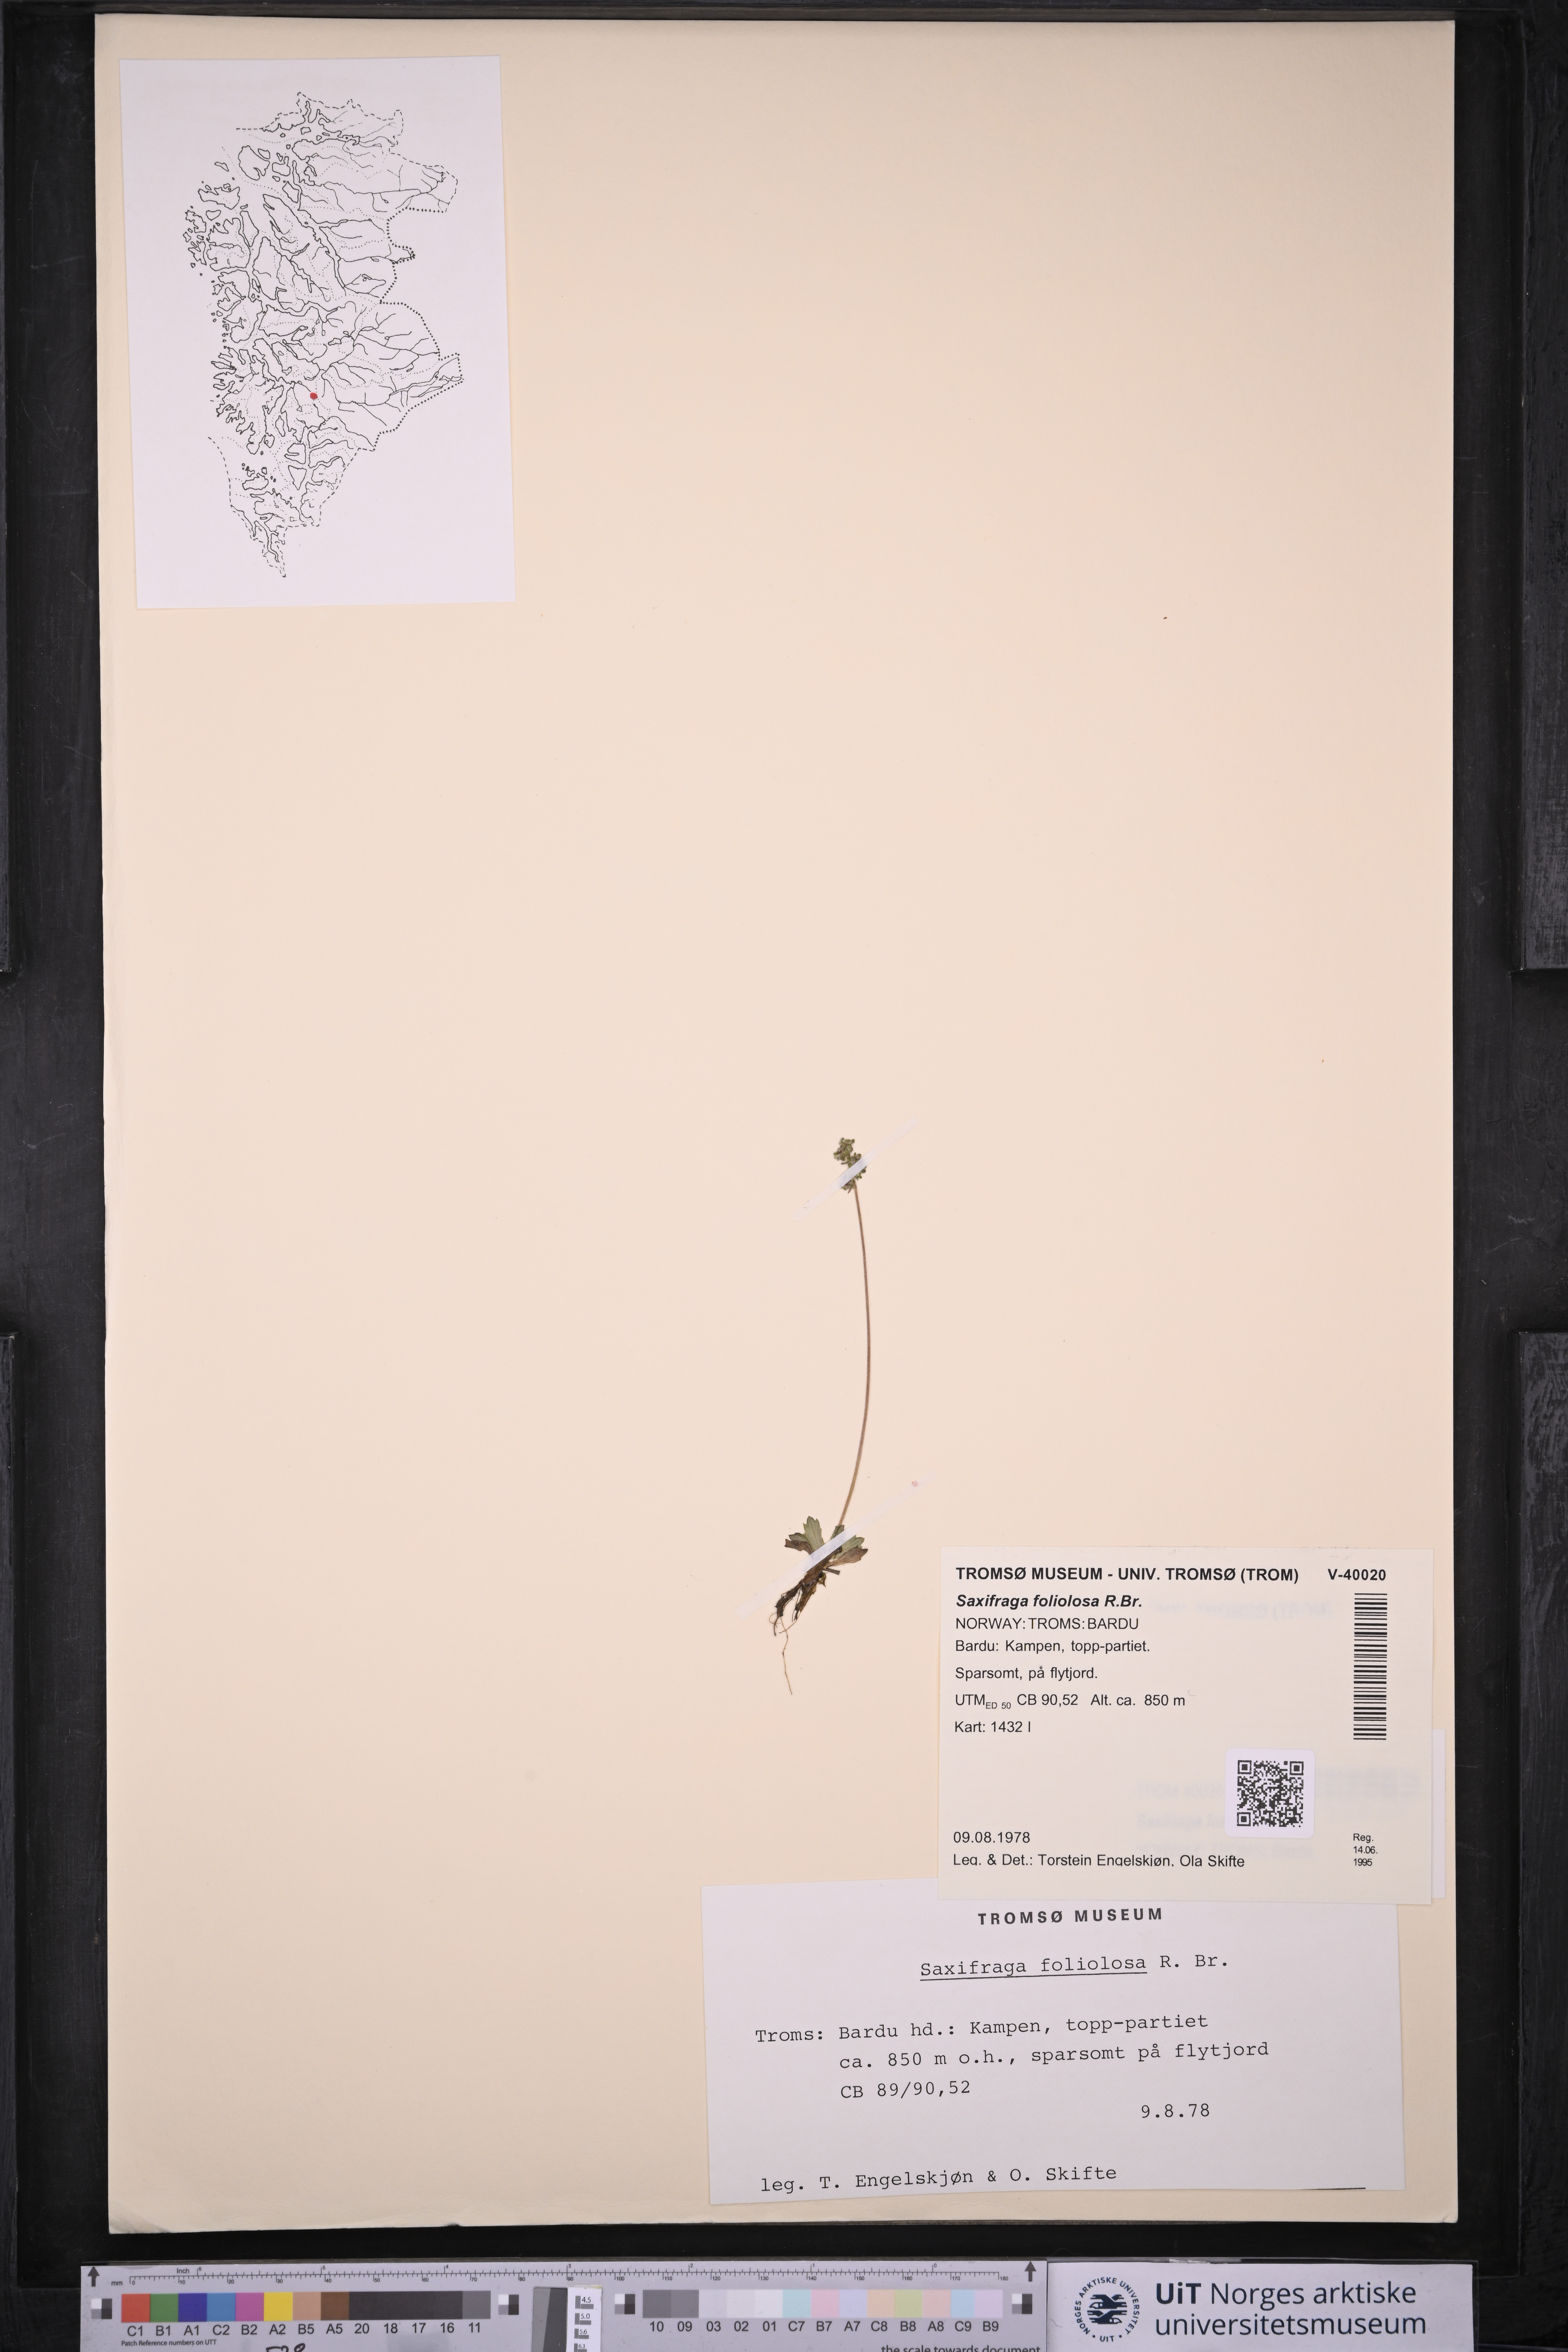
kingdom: Plantae
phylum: Tracheophyta
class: Magnoliopsida
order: Saxifragales
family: Saxifragaceae
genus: Micranthes
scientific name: Micranthes foliolosa
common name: Leafystem saxifrage
